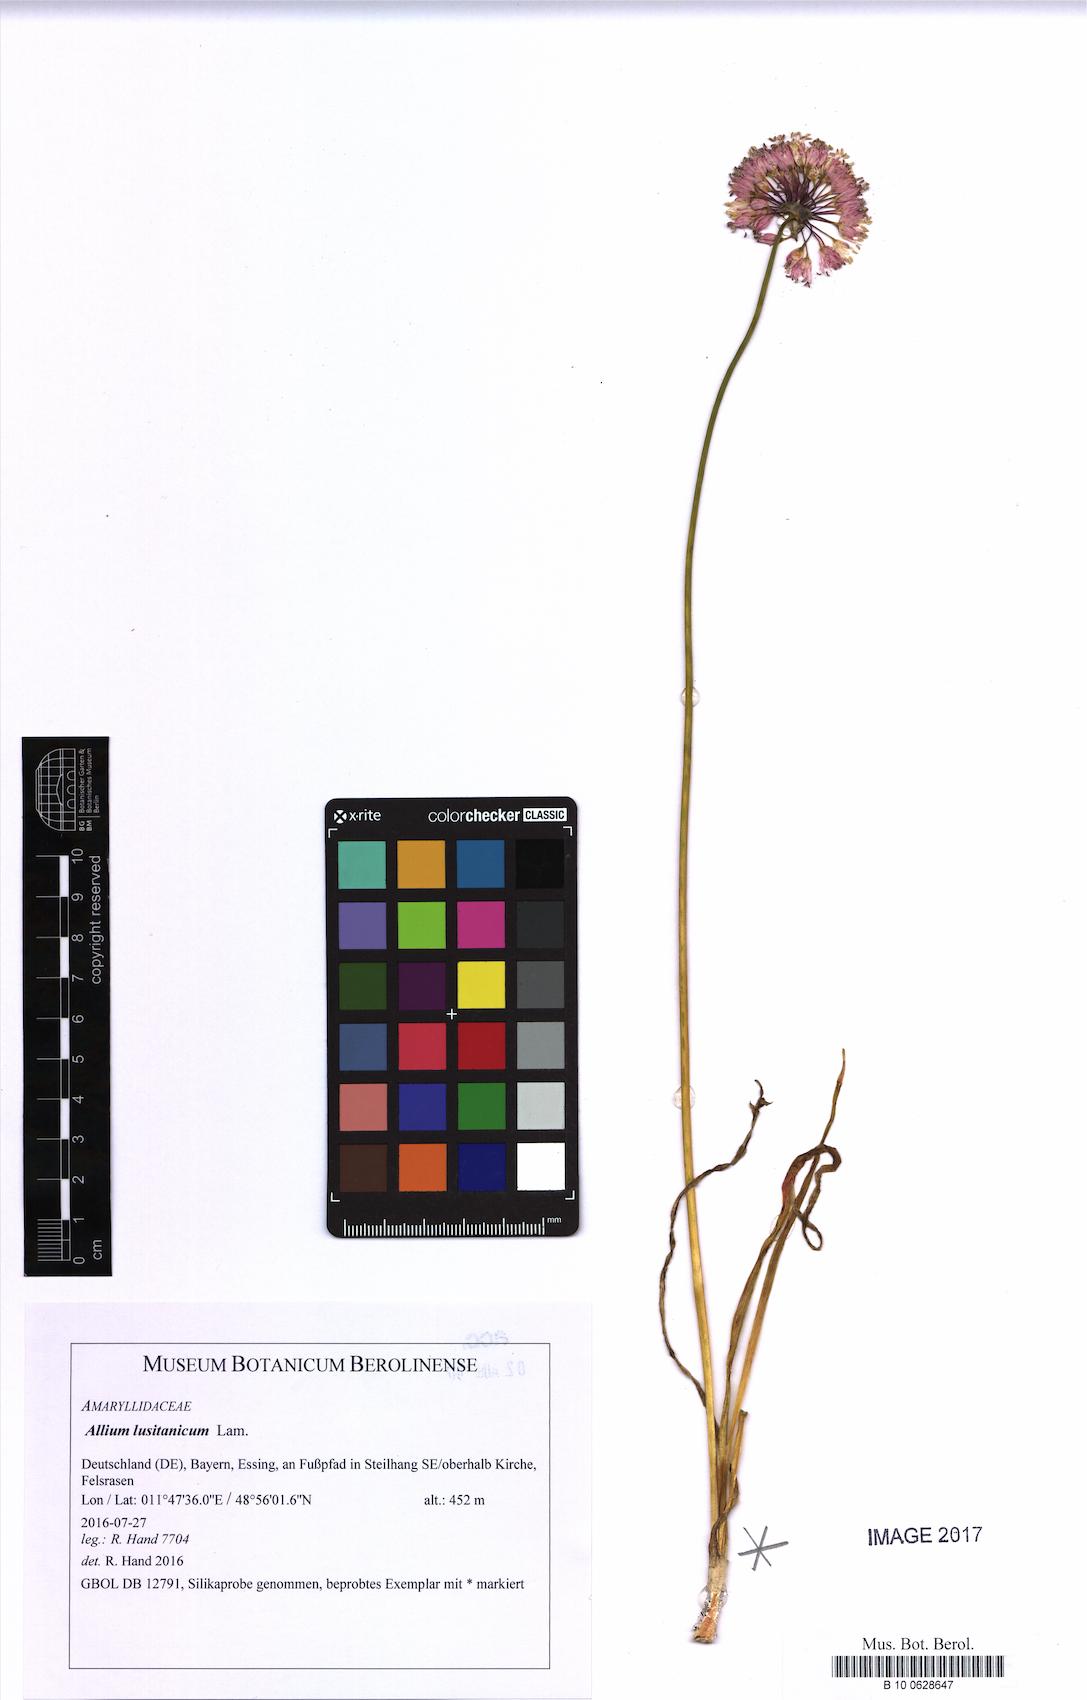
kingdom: Plantae
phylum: Tracheophyta
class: Liliopsida
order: Asparagales
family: Amaryllidaceae
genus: Allium
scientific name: Allium lusitanicum
